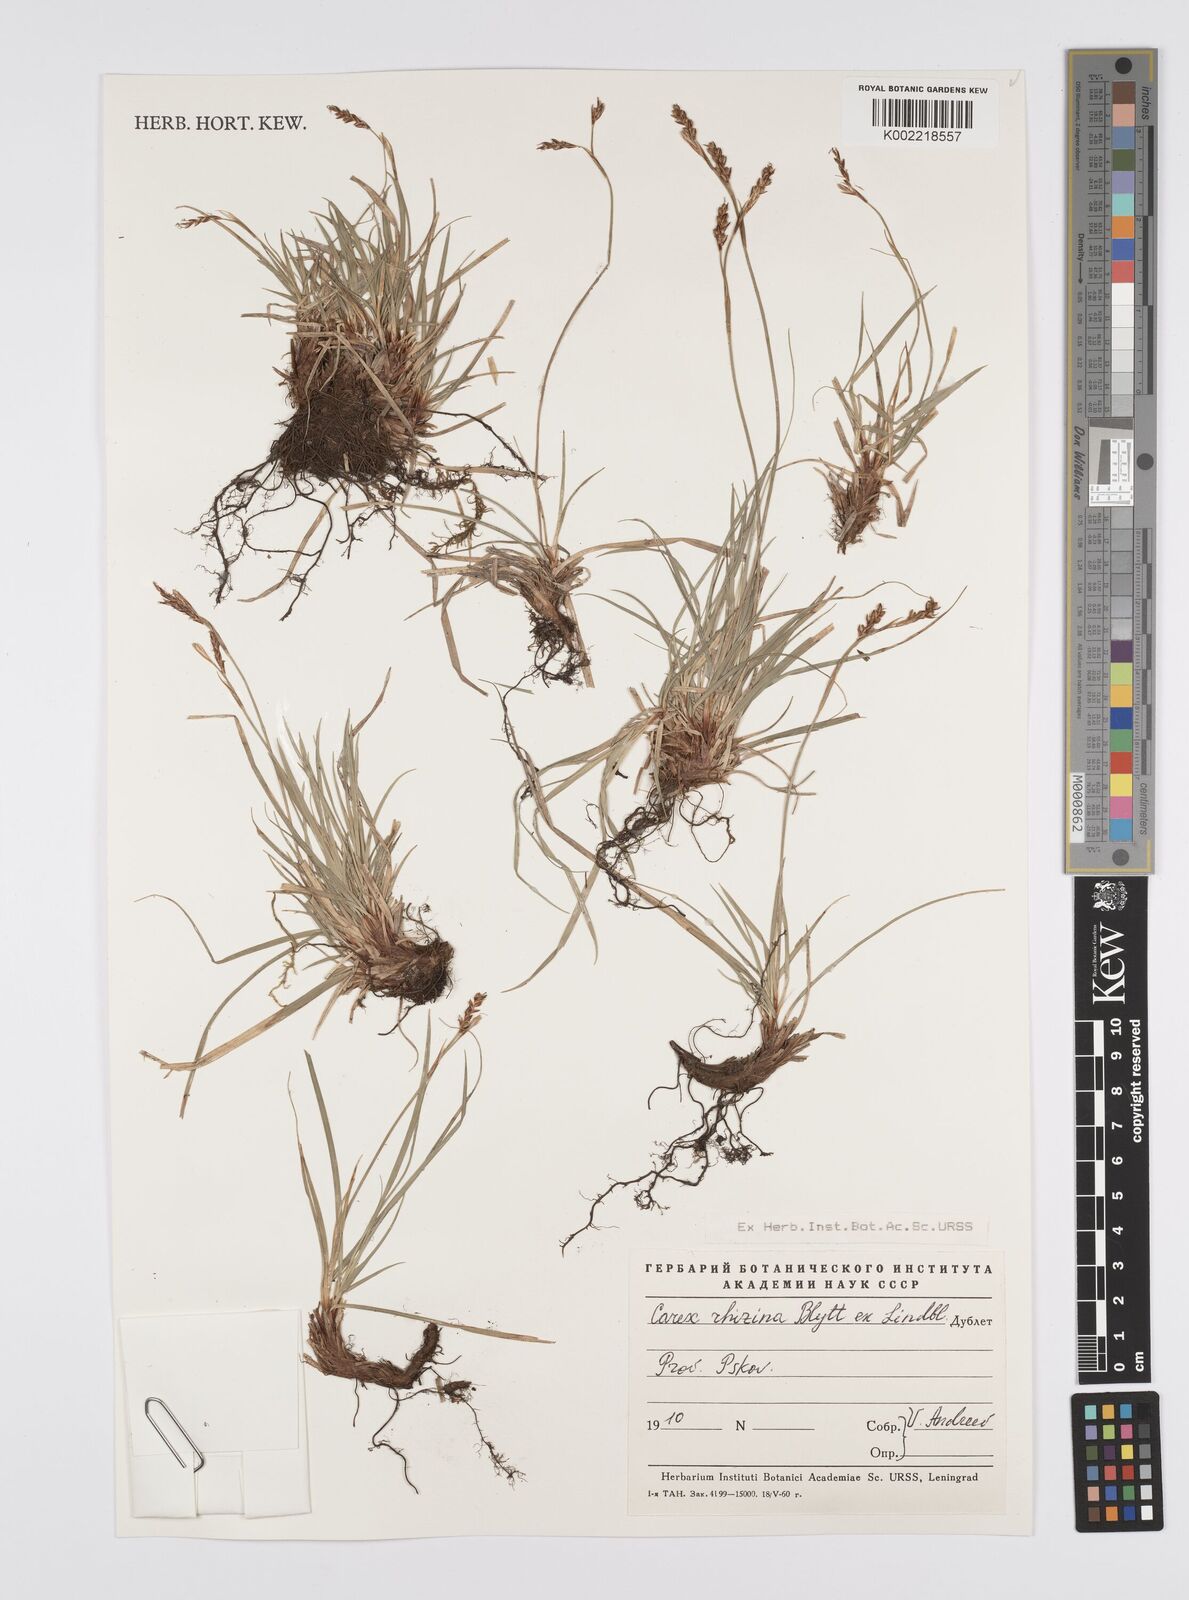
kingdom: Plantae
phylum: Tracheophyta
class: Liliopsida
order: Poales
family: Cyperaceae
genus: Carex
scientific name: Carex pediformis
